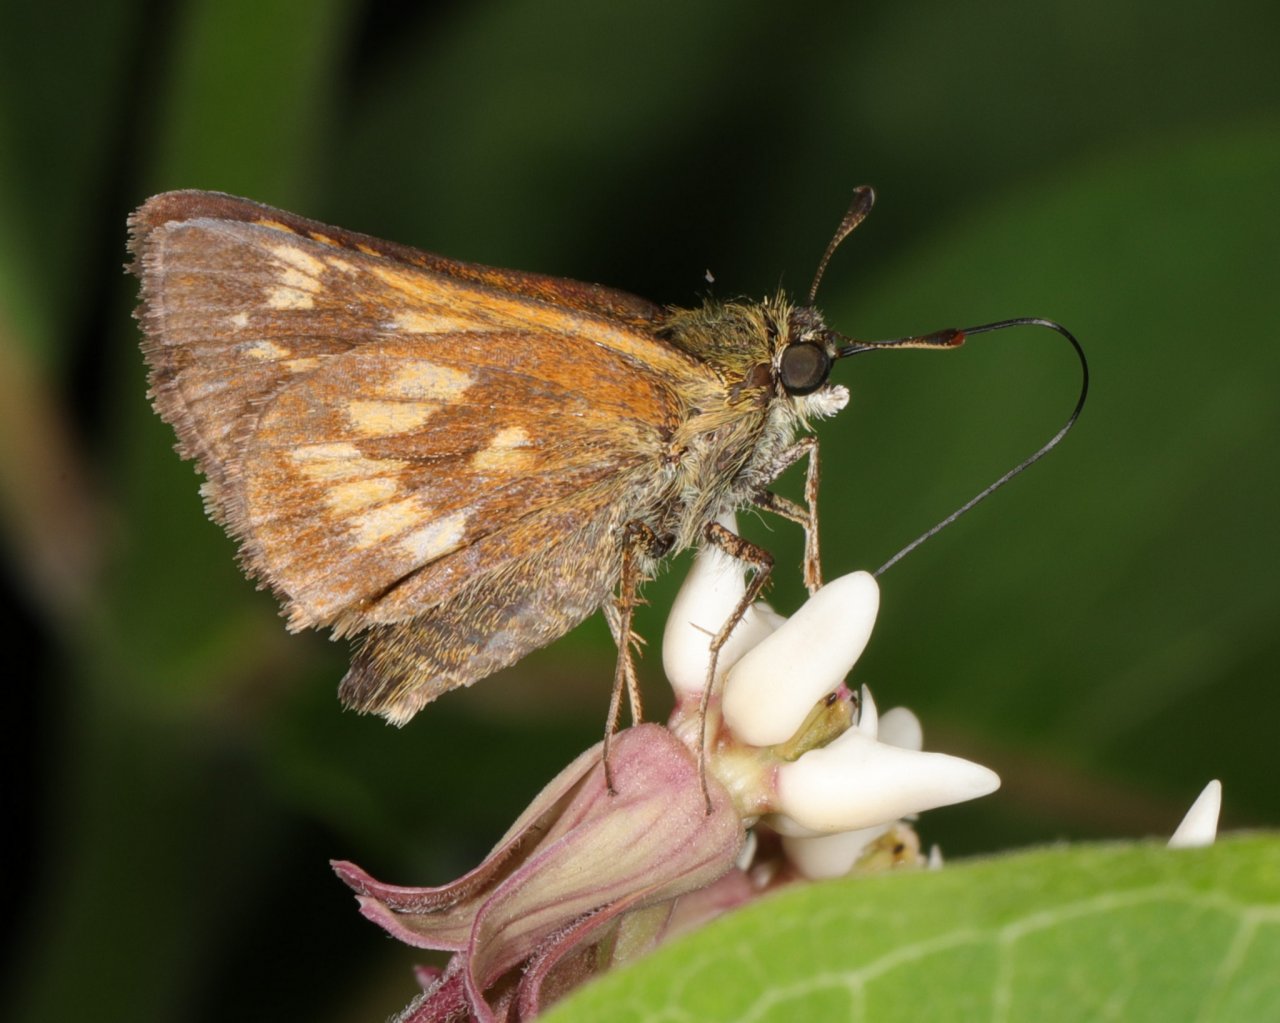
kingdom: Animalia
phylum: Arthropoda
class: Insecta
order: Lepidoptera
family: Hesperiidae
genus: Polites
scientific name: Polites
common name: Long Dash Skipper
